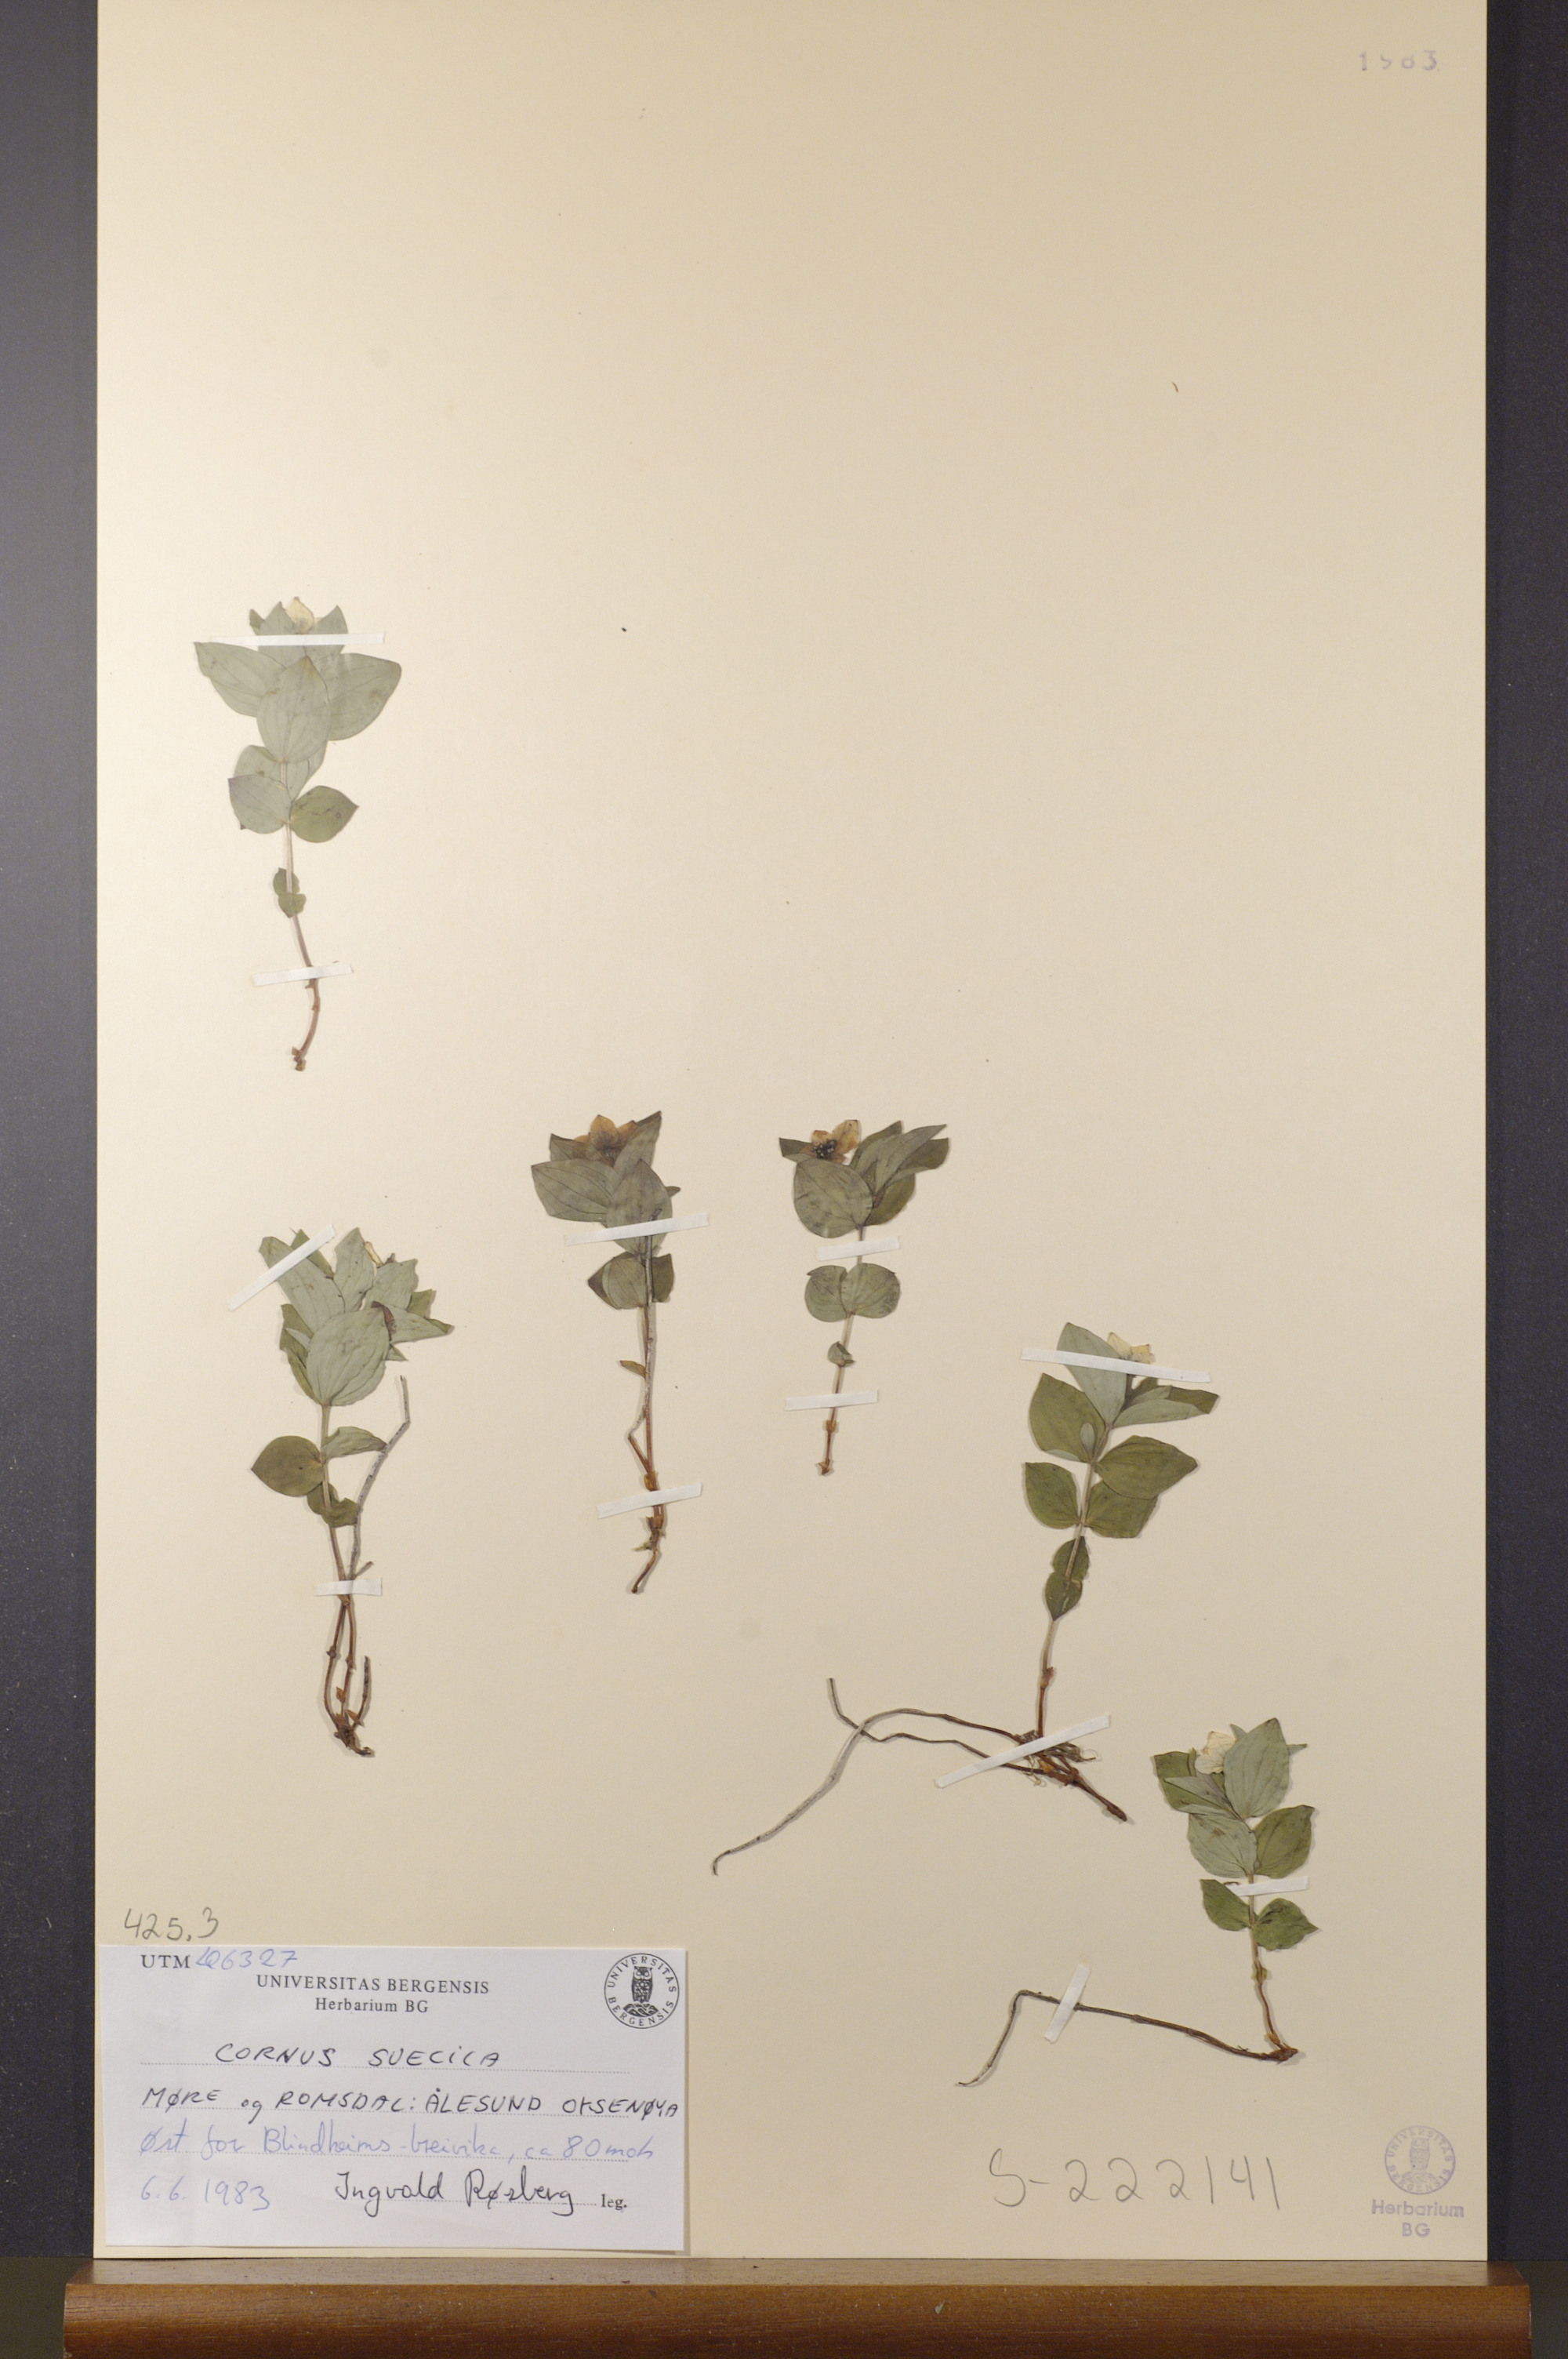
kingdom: Plantae
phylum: Tracheophyta
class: Magnoliopsida
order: Cornales
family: Cornaceae
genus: Cornus
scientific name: Cornus suecica
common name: Dwarf cornel
